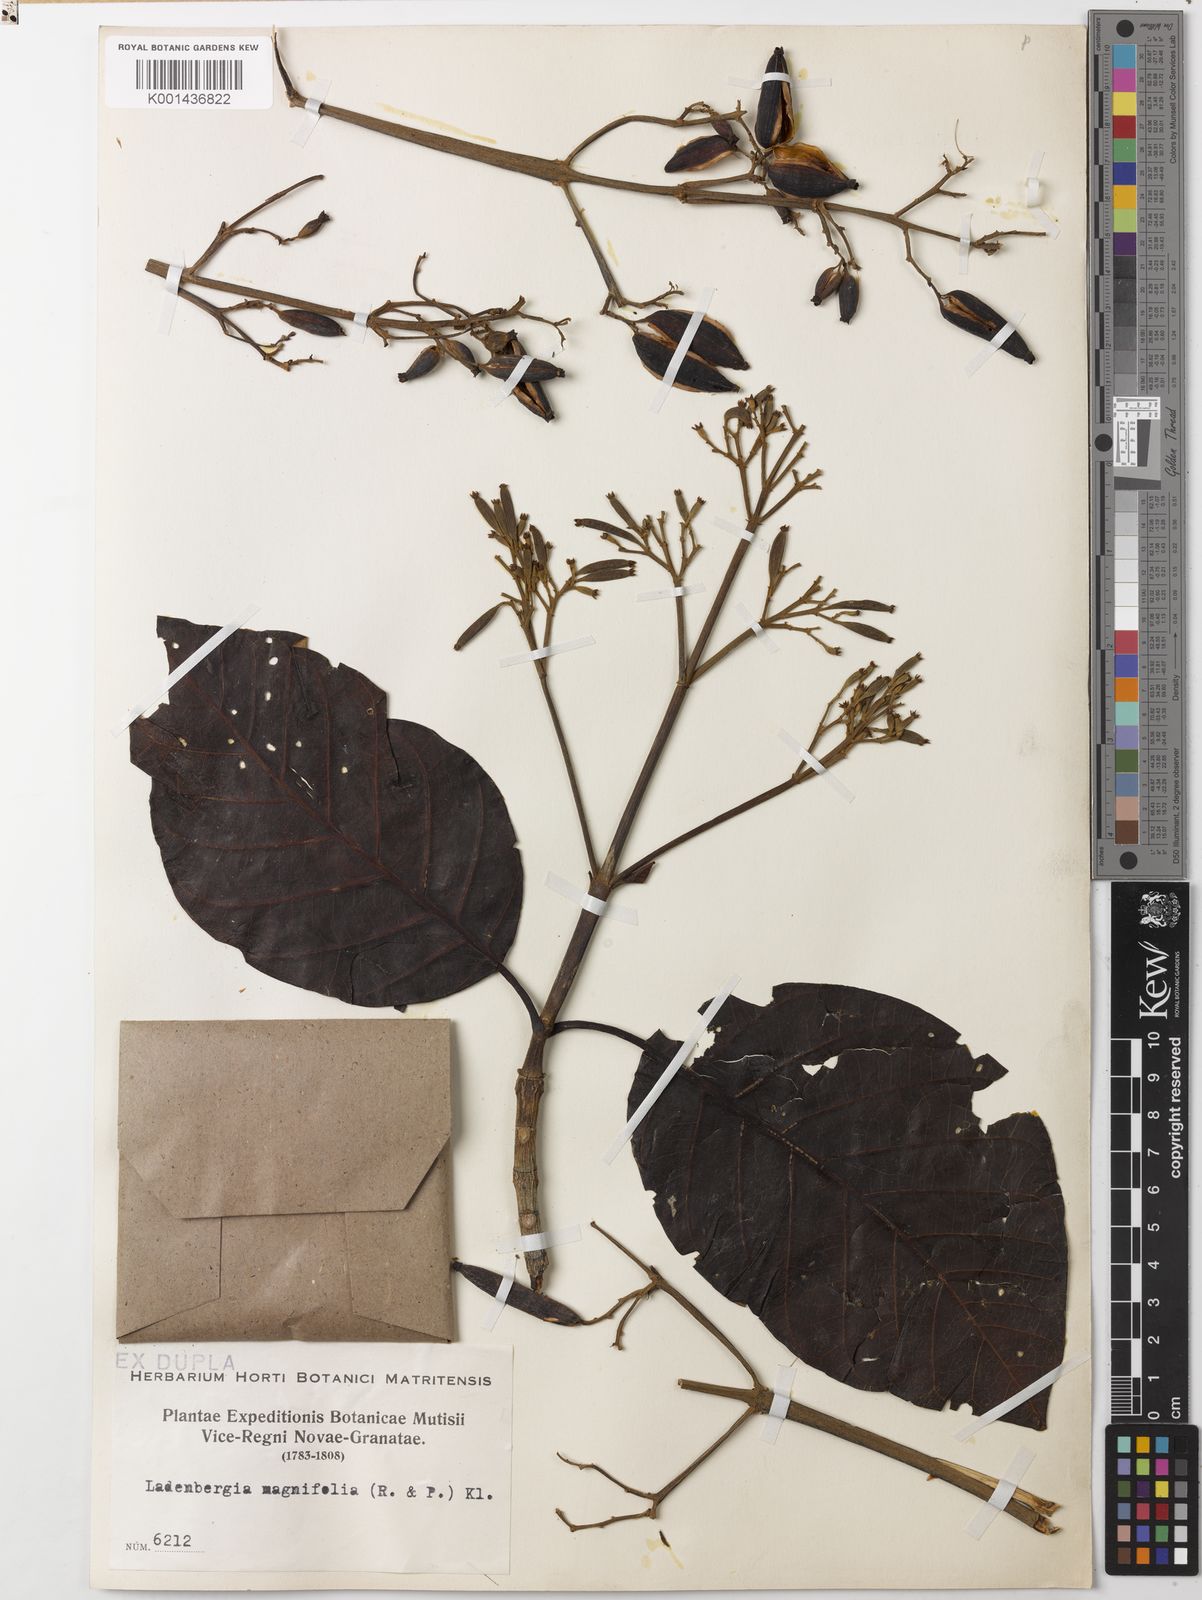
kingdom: Plantae
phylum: Tracheophyta
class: Magnoliopsida
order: Gentianales
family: Rubiaceae
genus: Ladenbergia
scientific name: Ladenbergia oblongifolia
